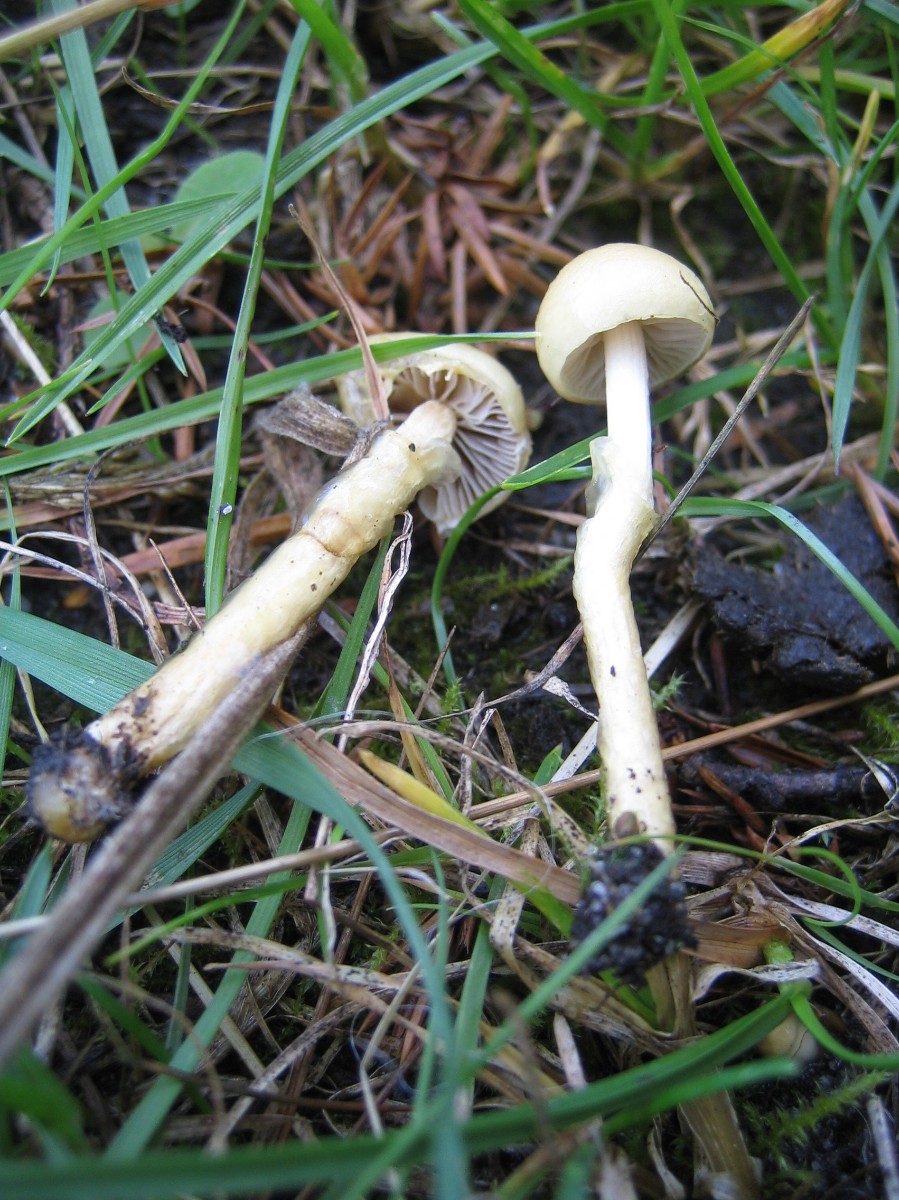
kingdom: Fungi
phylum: Basidiomycota
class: Agaricomycetes
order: Agaricales
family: Strophariaceae
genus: Protostropharia
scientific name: Protostropharia semiglobata
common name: halvkugleformet bredblad
